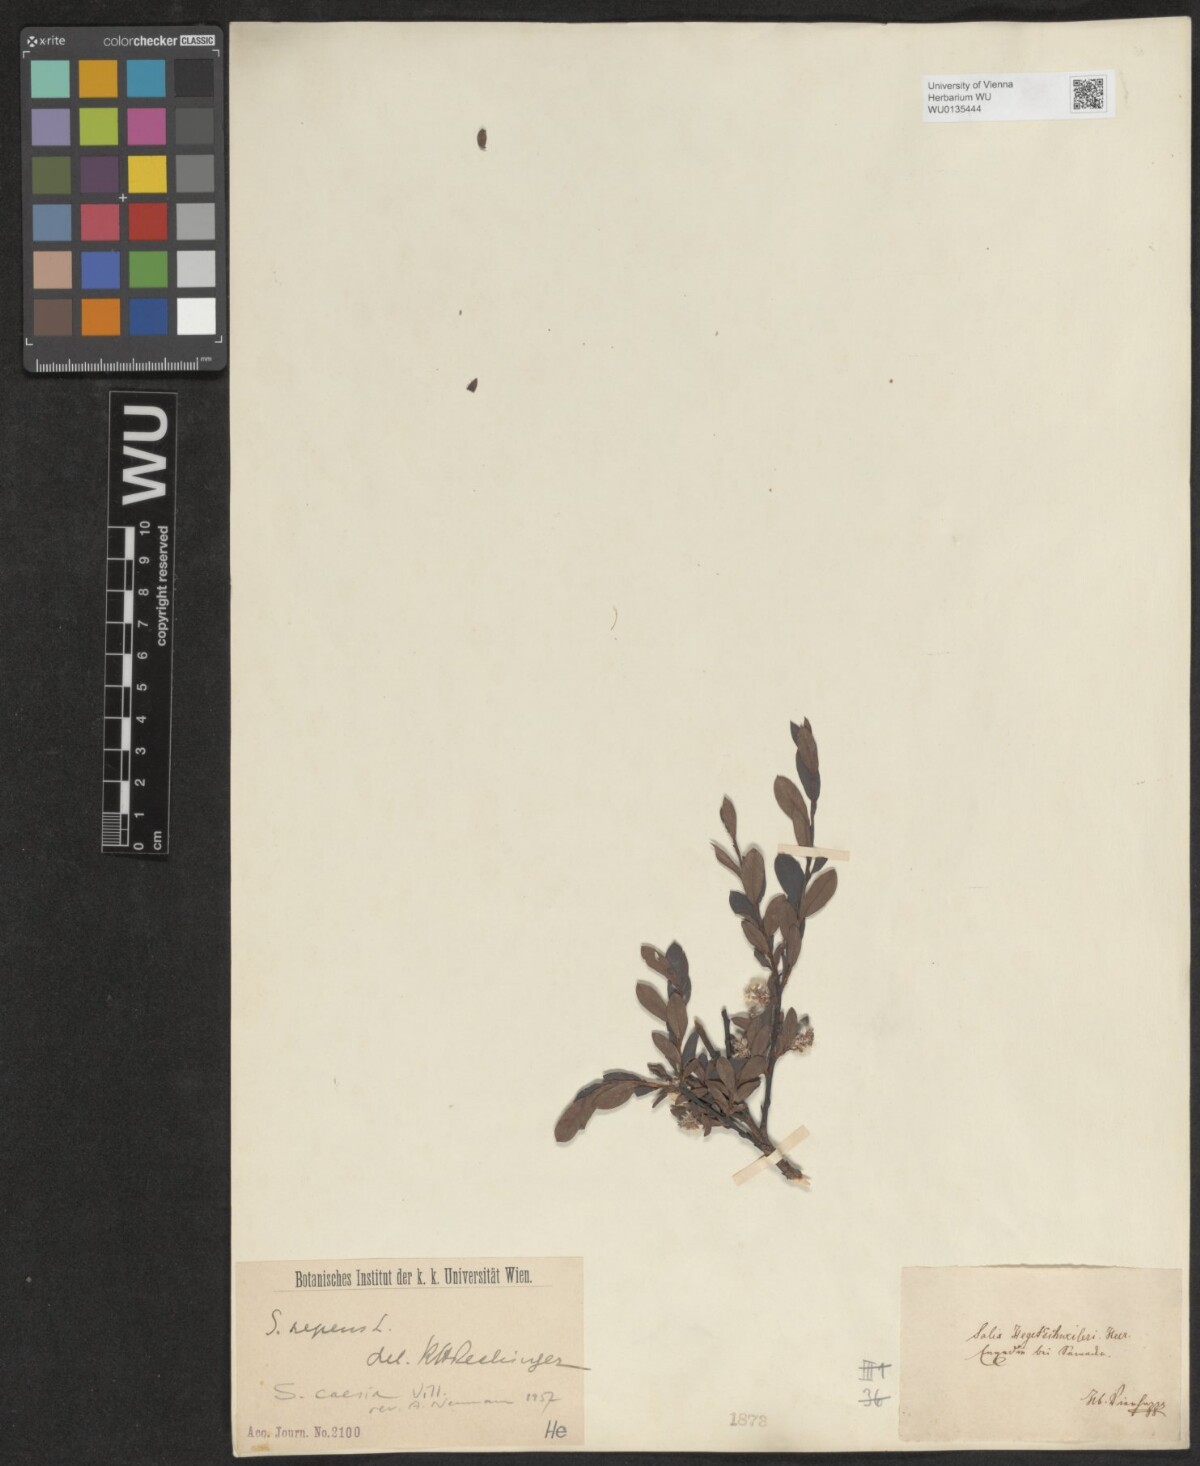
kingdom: Plantae
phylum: Tracheophyta
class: Magnoliopsida
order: Malpighiales
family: Salicaceae
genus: Salix
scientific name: Salix caesia
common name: Blue willow
